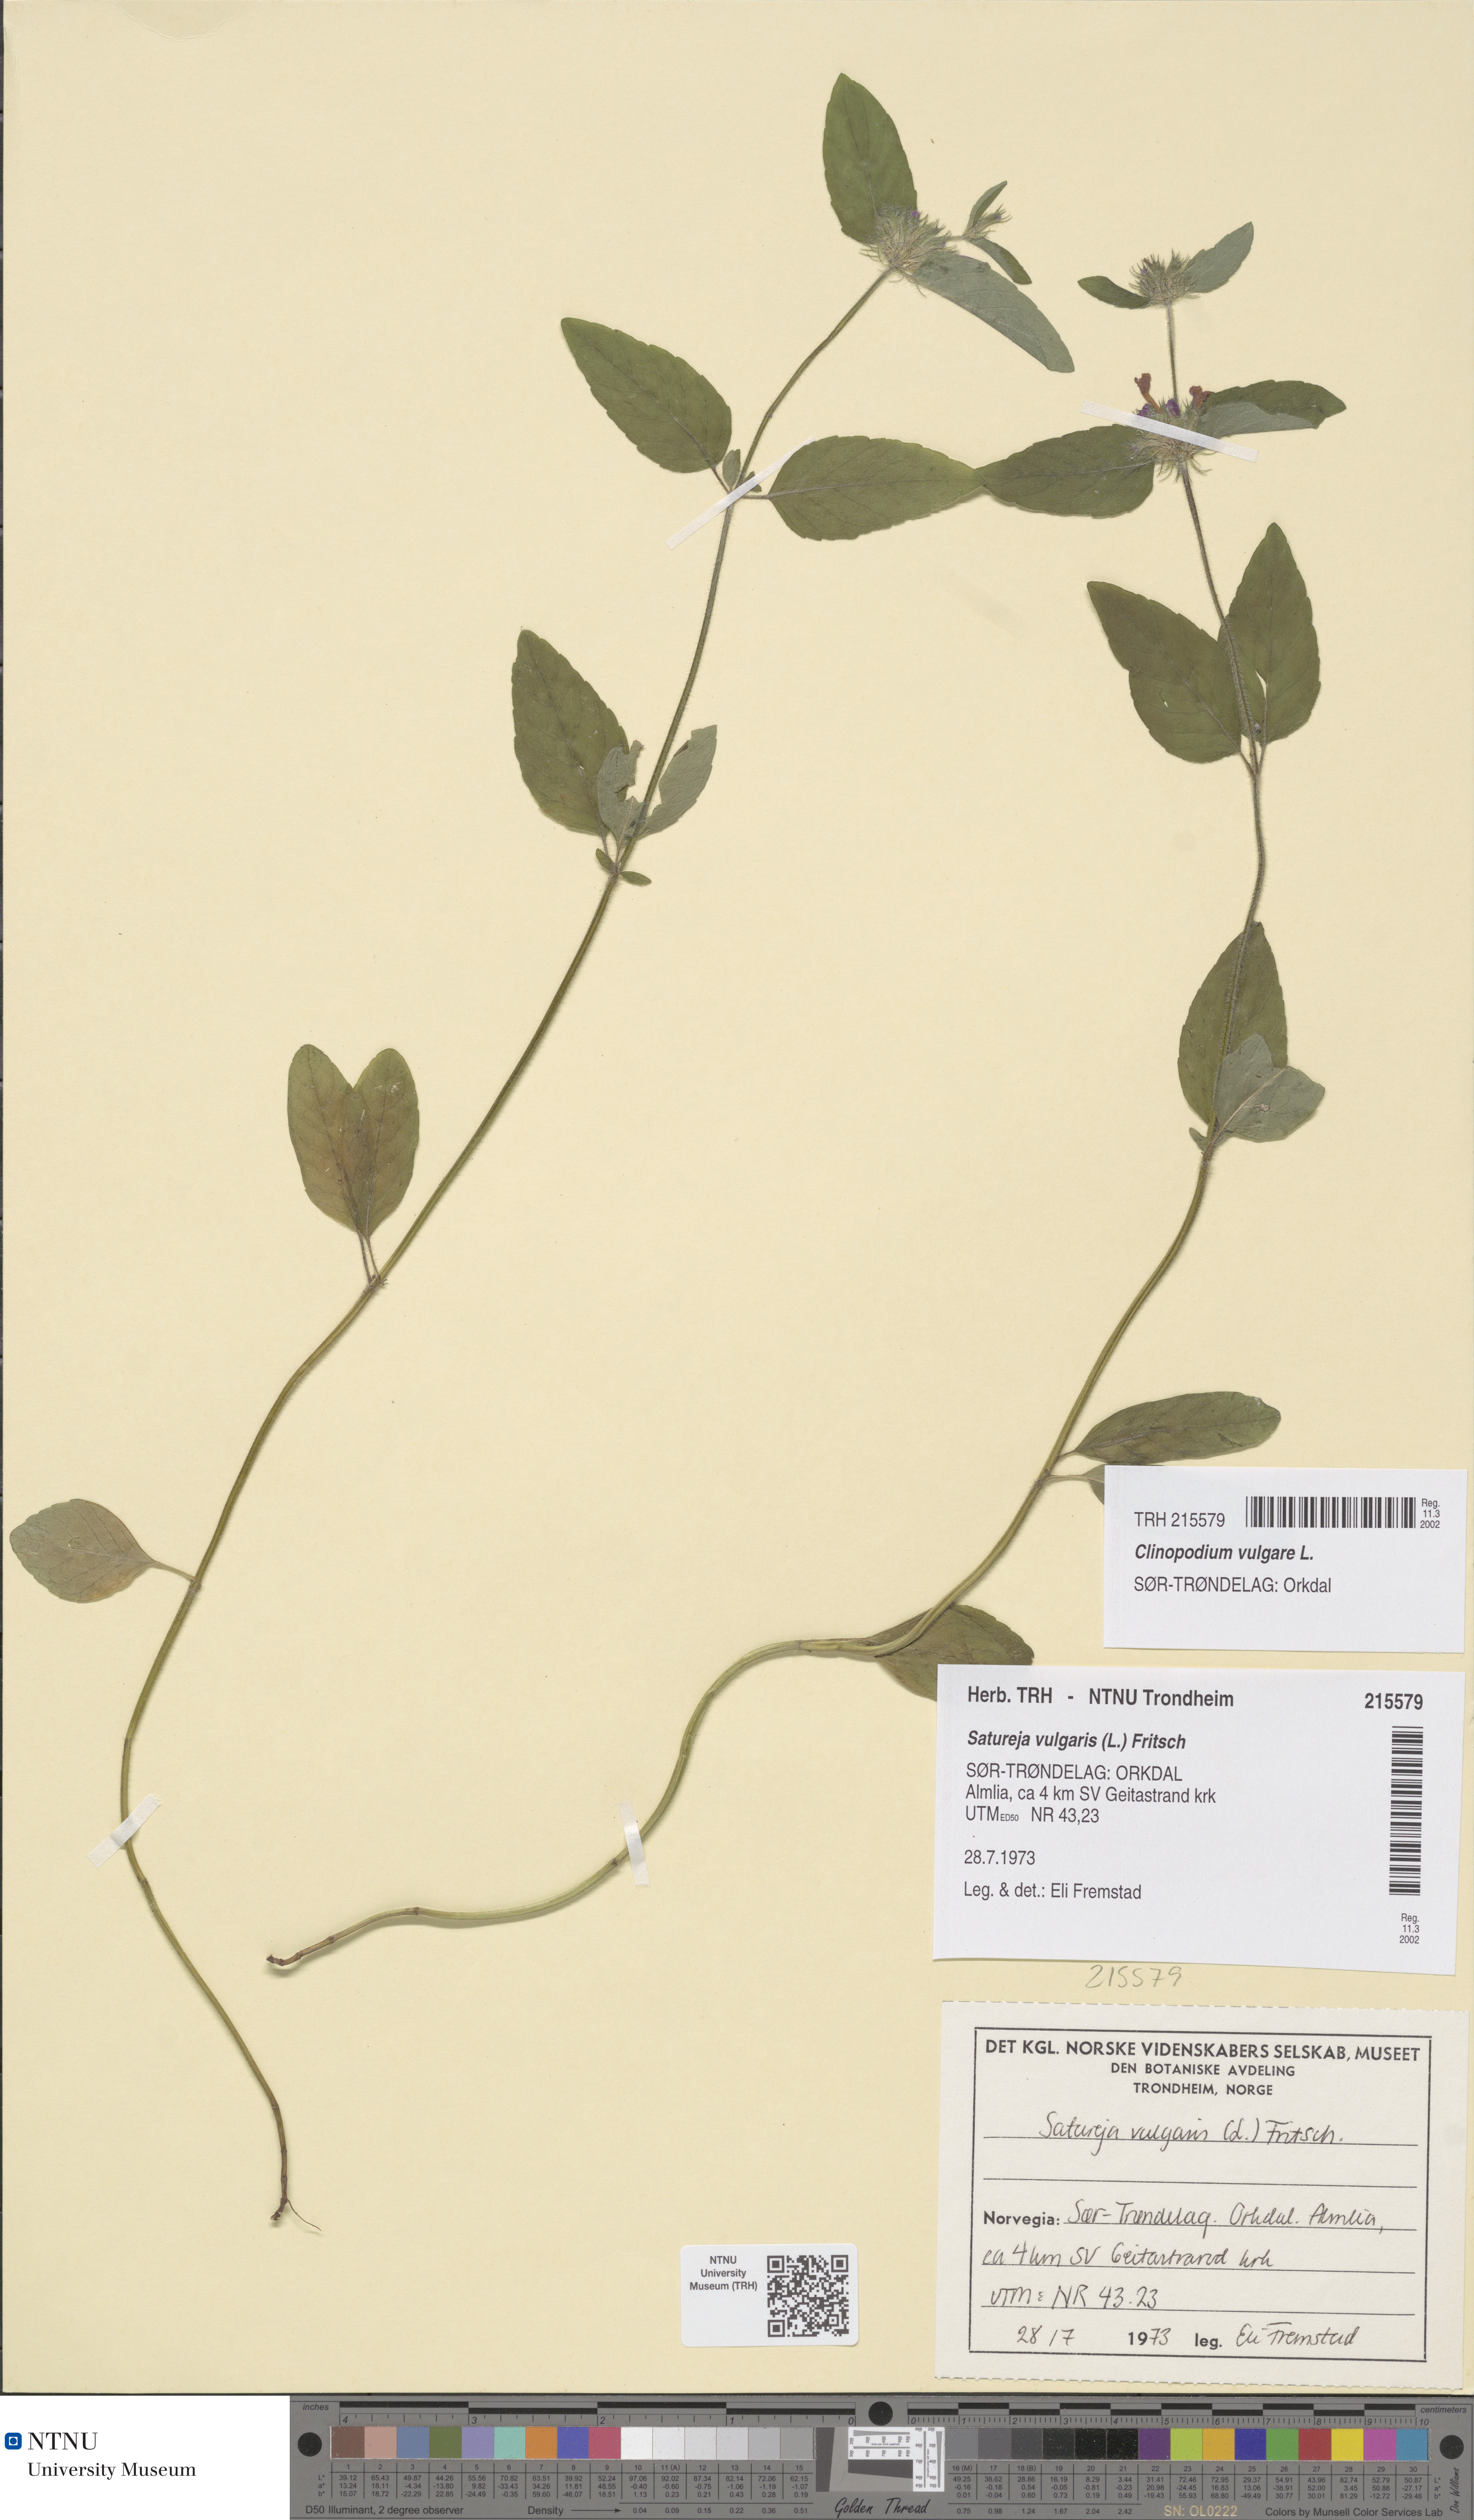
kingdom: Plantae
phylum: Tracheophyta
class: Magnoliopsida
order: Lamiales
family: Lamiaceae
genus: Clinopodium
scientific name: Clinopodium vulgare
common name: Wild basil
